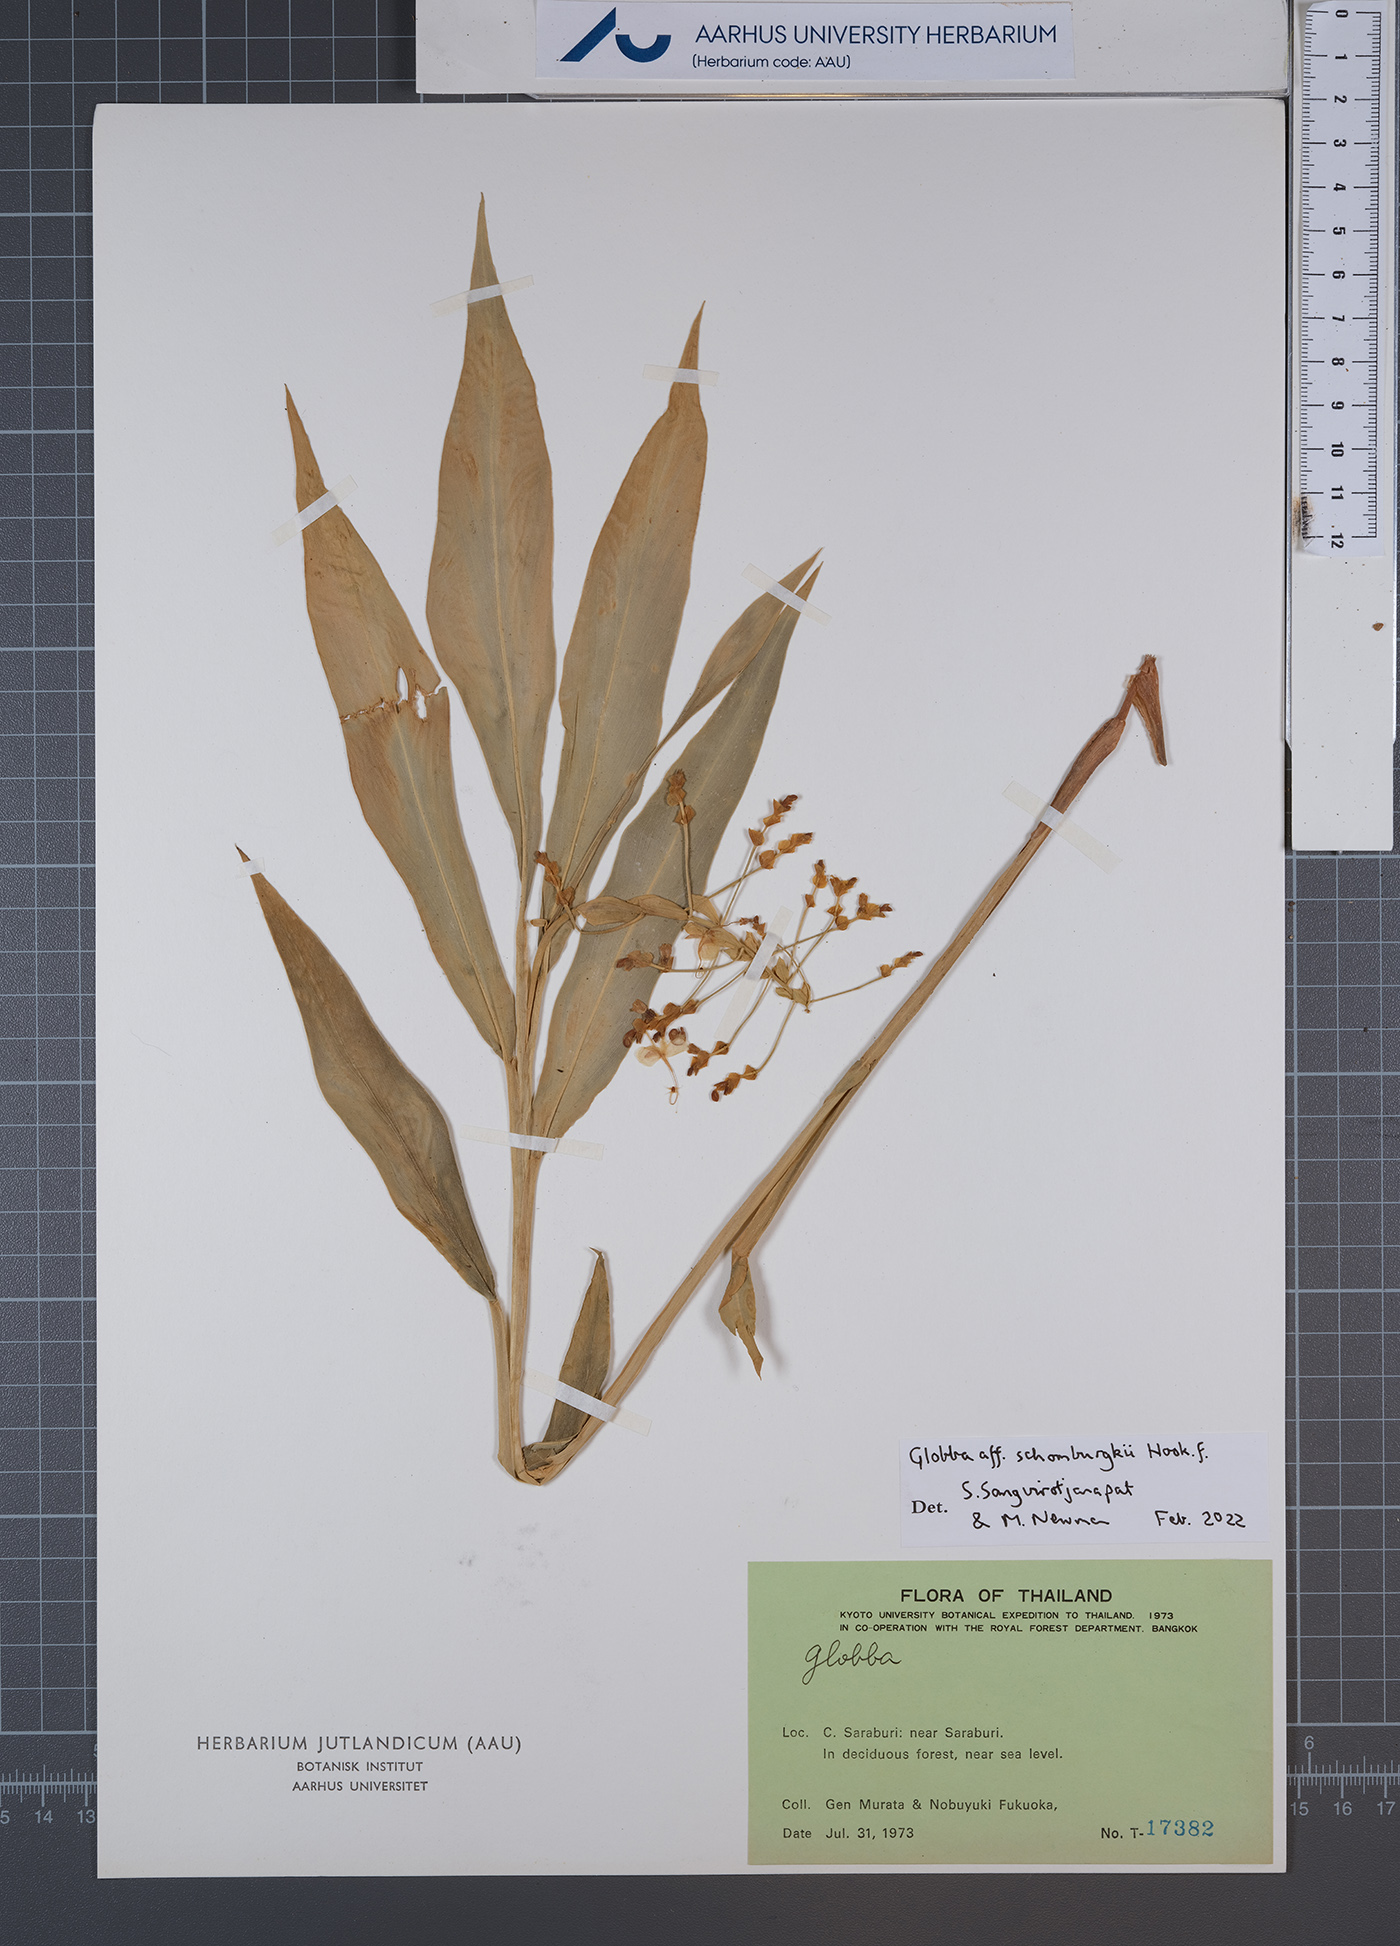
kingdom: Plantae
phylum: Tracheophyta
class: Liliopsida
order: Zingiberales
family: Zingiberaceae
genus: Globba
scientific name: Globba schomburgkii
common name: Dancing girl ginger
